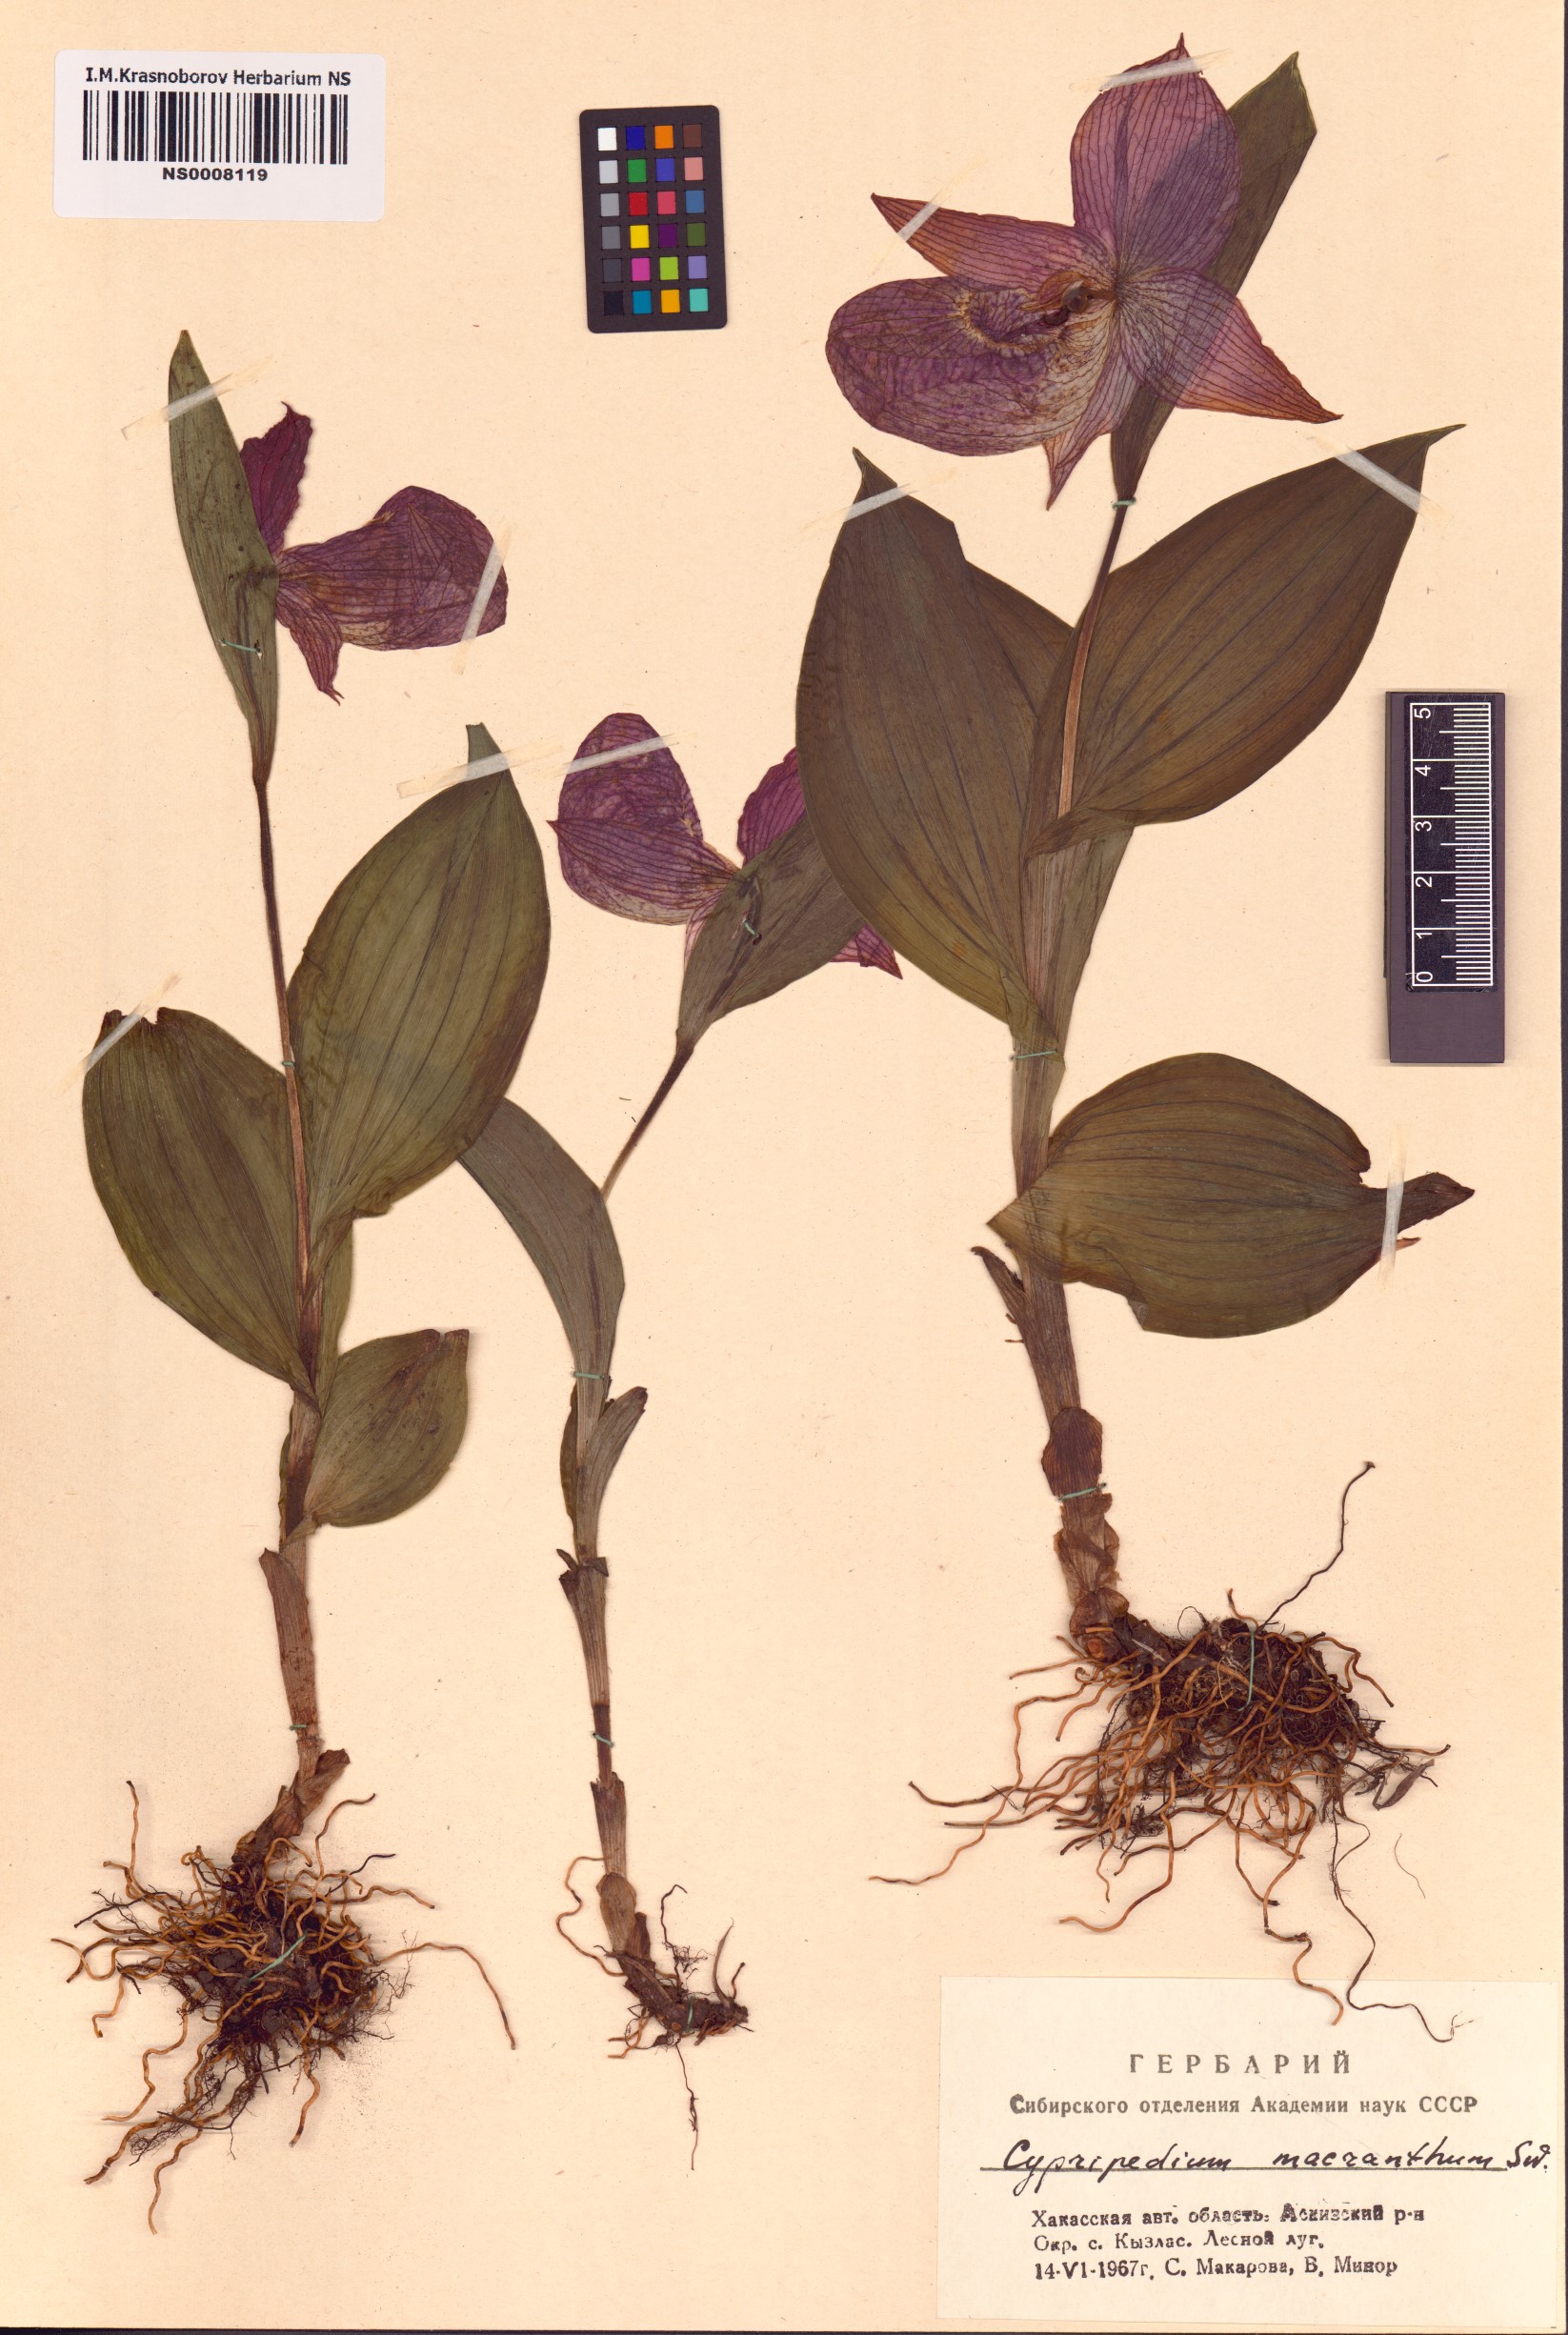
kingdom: Plantae
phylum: Tracheophyta
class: Liliopsida
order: Asparagales
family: Orchidaceae
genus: Cypripedium
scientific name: Cypripedium macranthos
